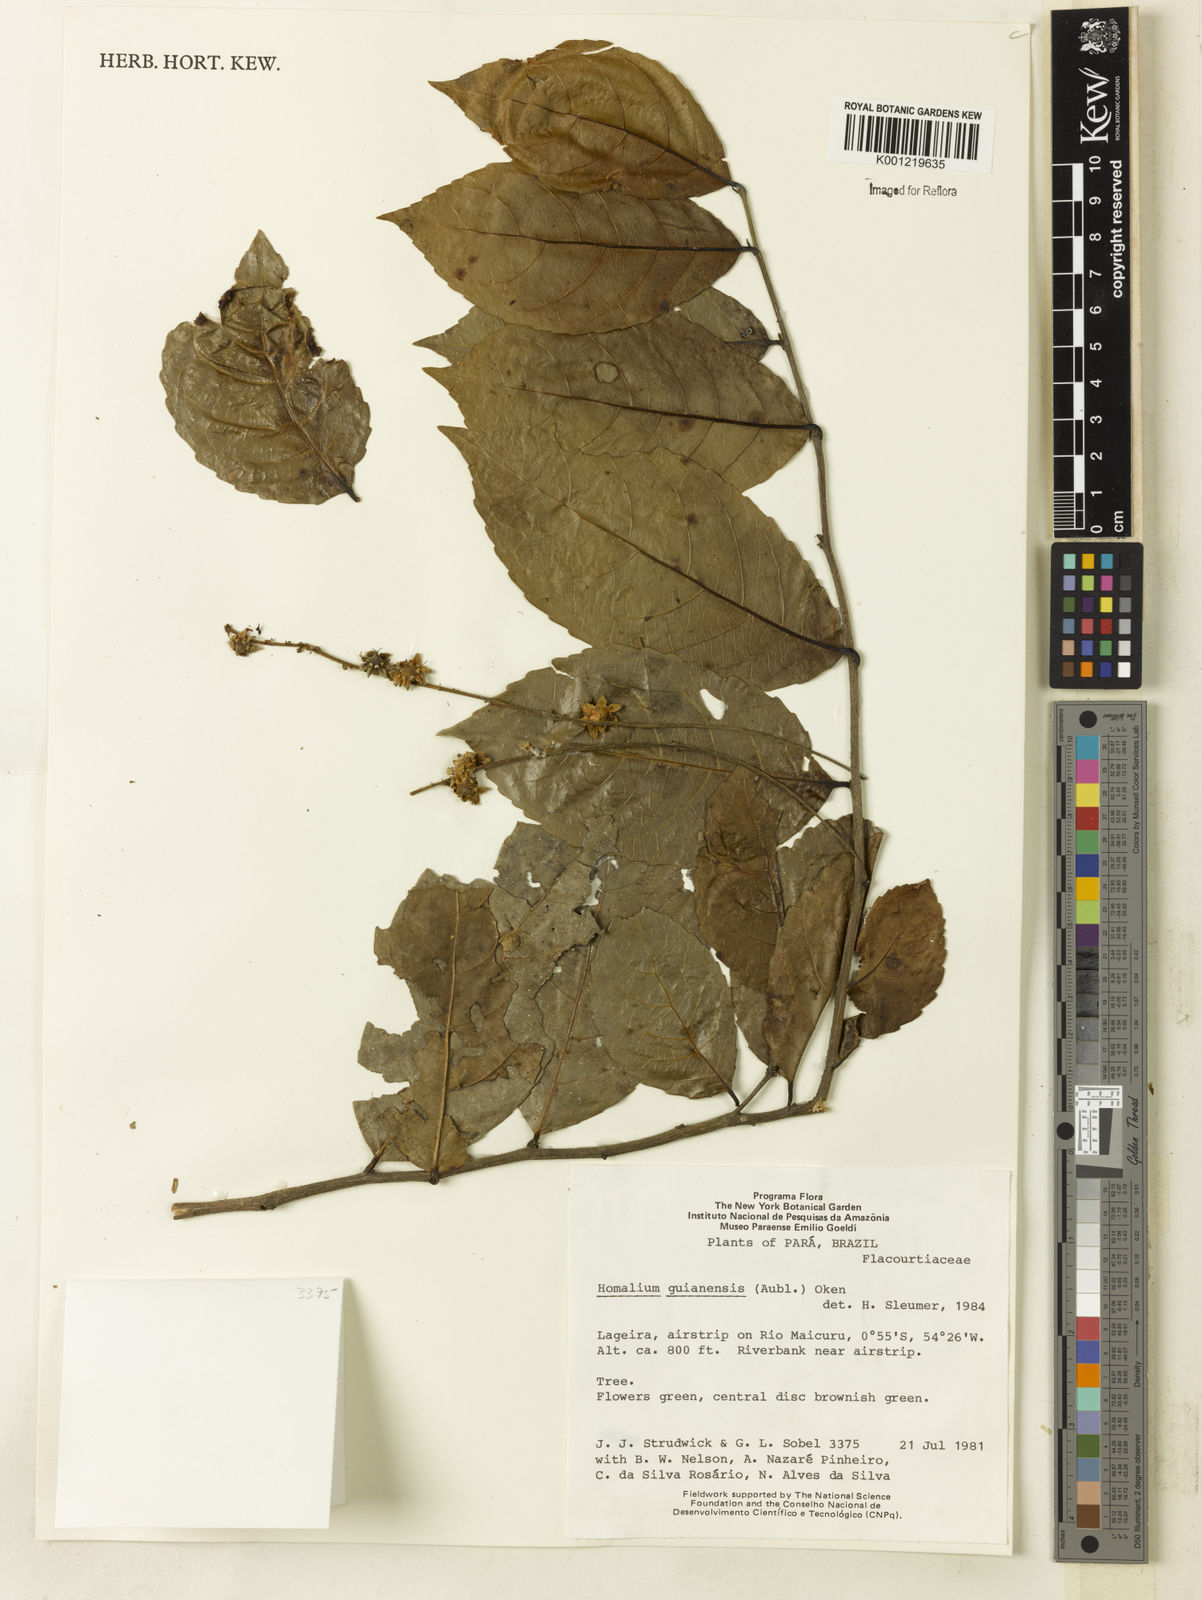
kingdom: Plantae
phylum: Tracheophyta
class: Magnoliopsida
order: Malpighiales
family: Salicaceae
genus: Homalium
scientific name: Homalium guianense
